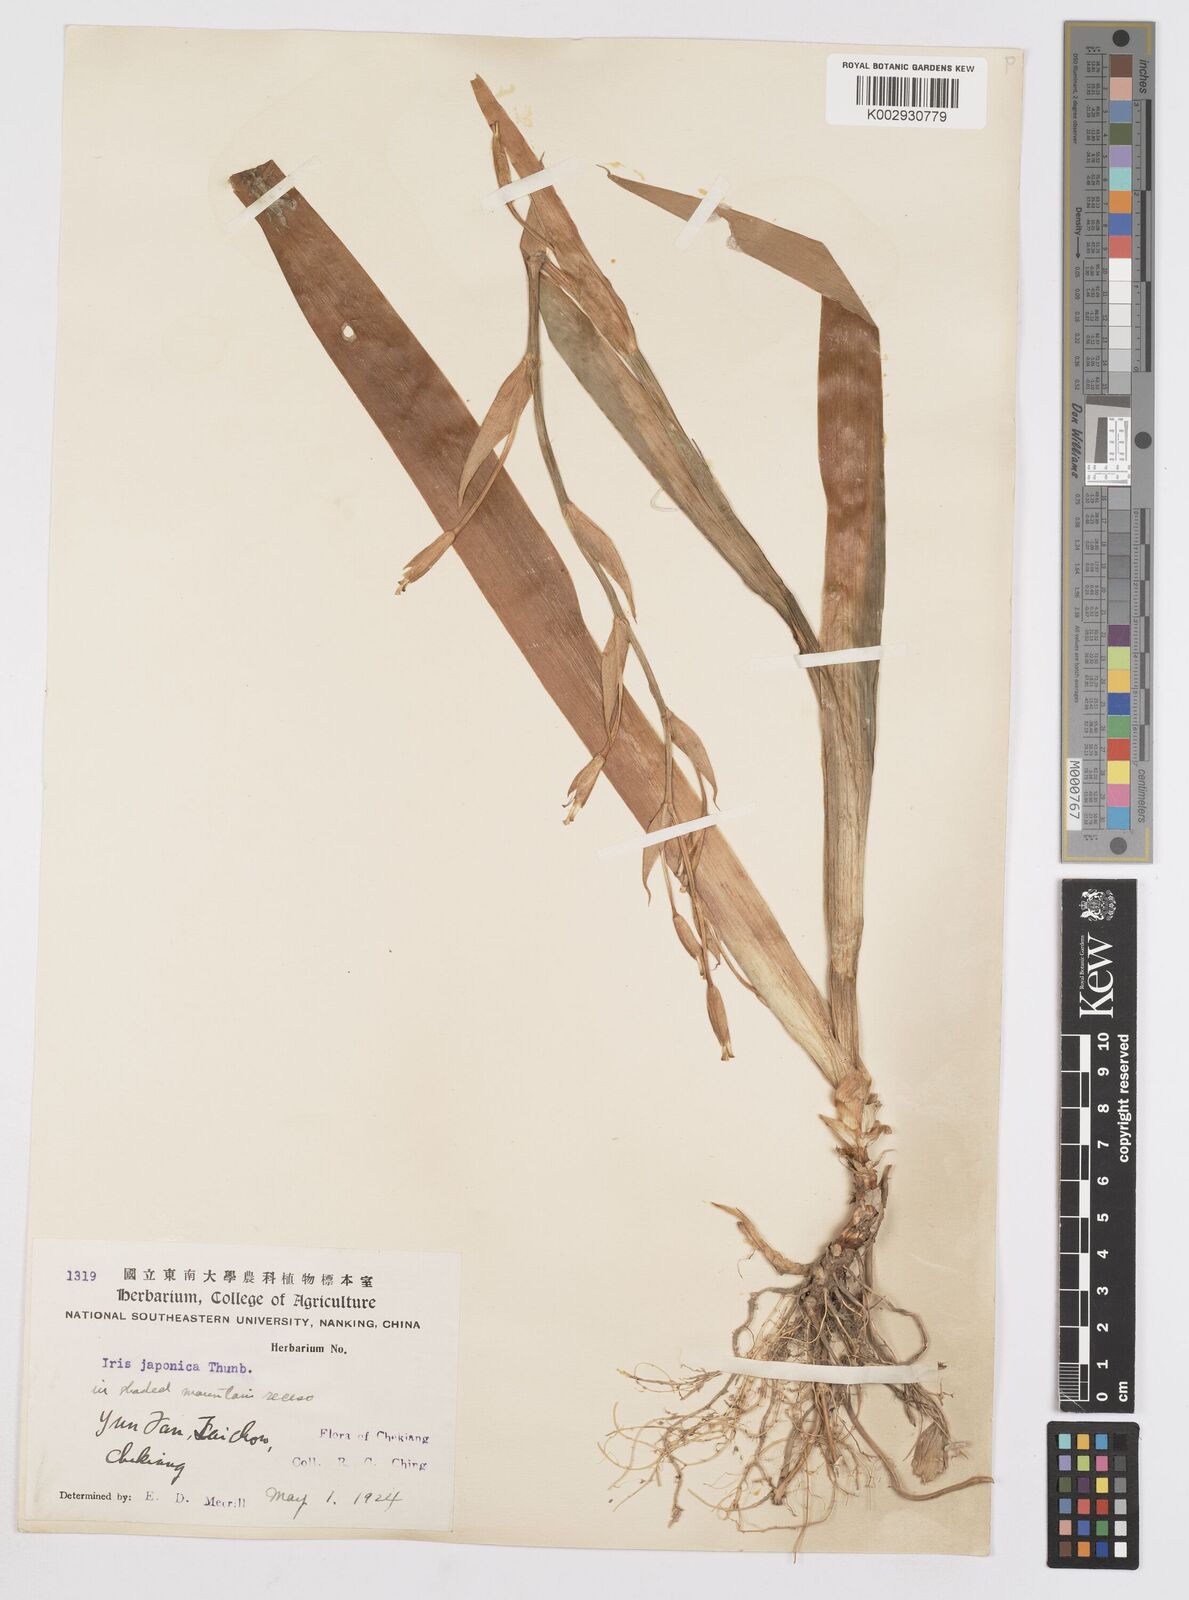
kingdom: Plantae
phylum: Tracheophyta
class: Liliopsida
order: Asparagales
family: Iridaceae
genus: Iris
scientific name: Iris japonica
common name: Butterfly-flower
